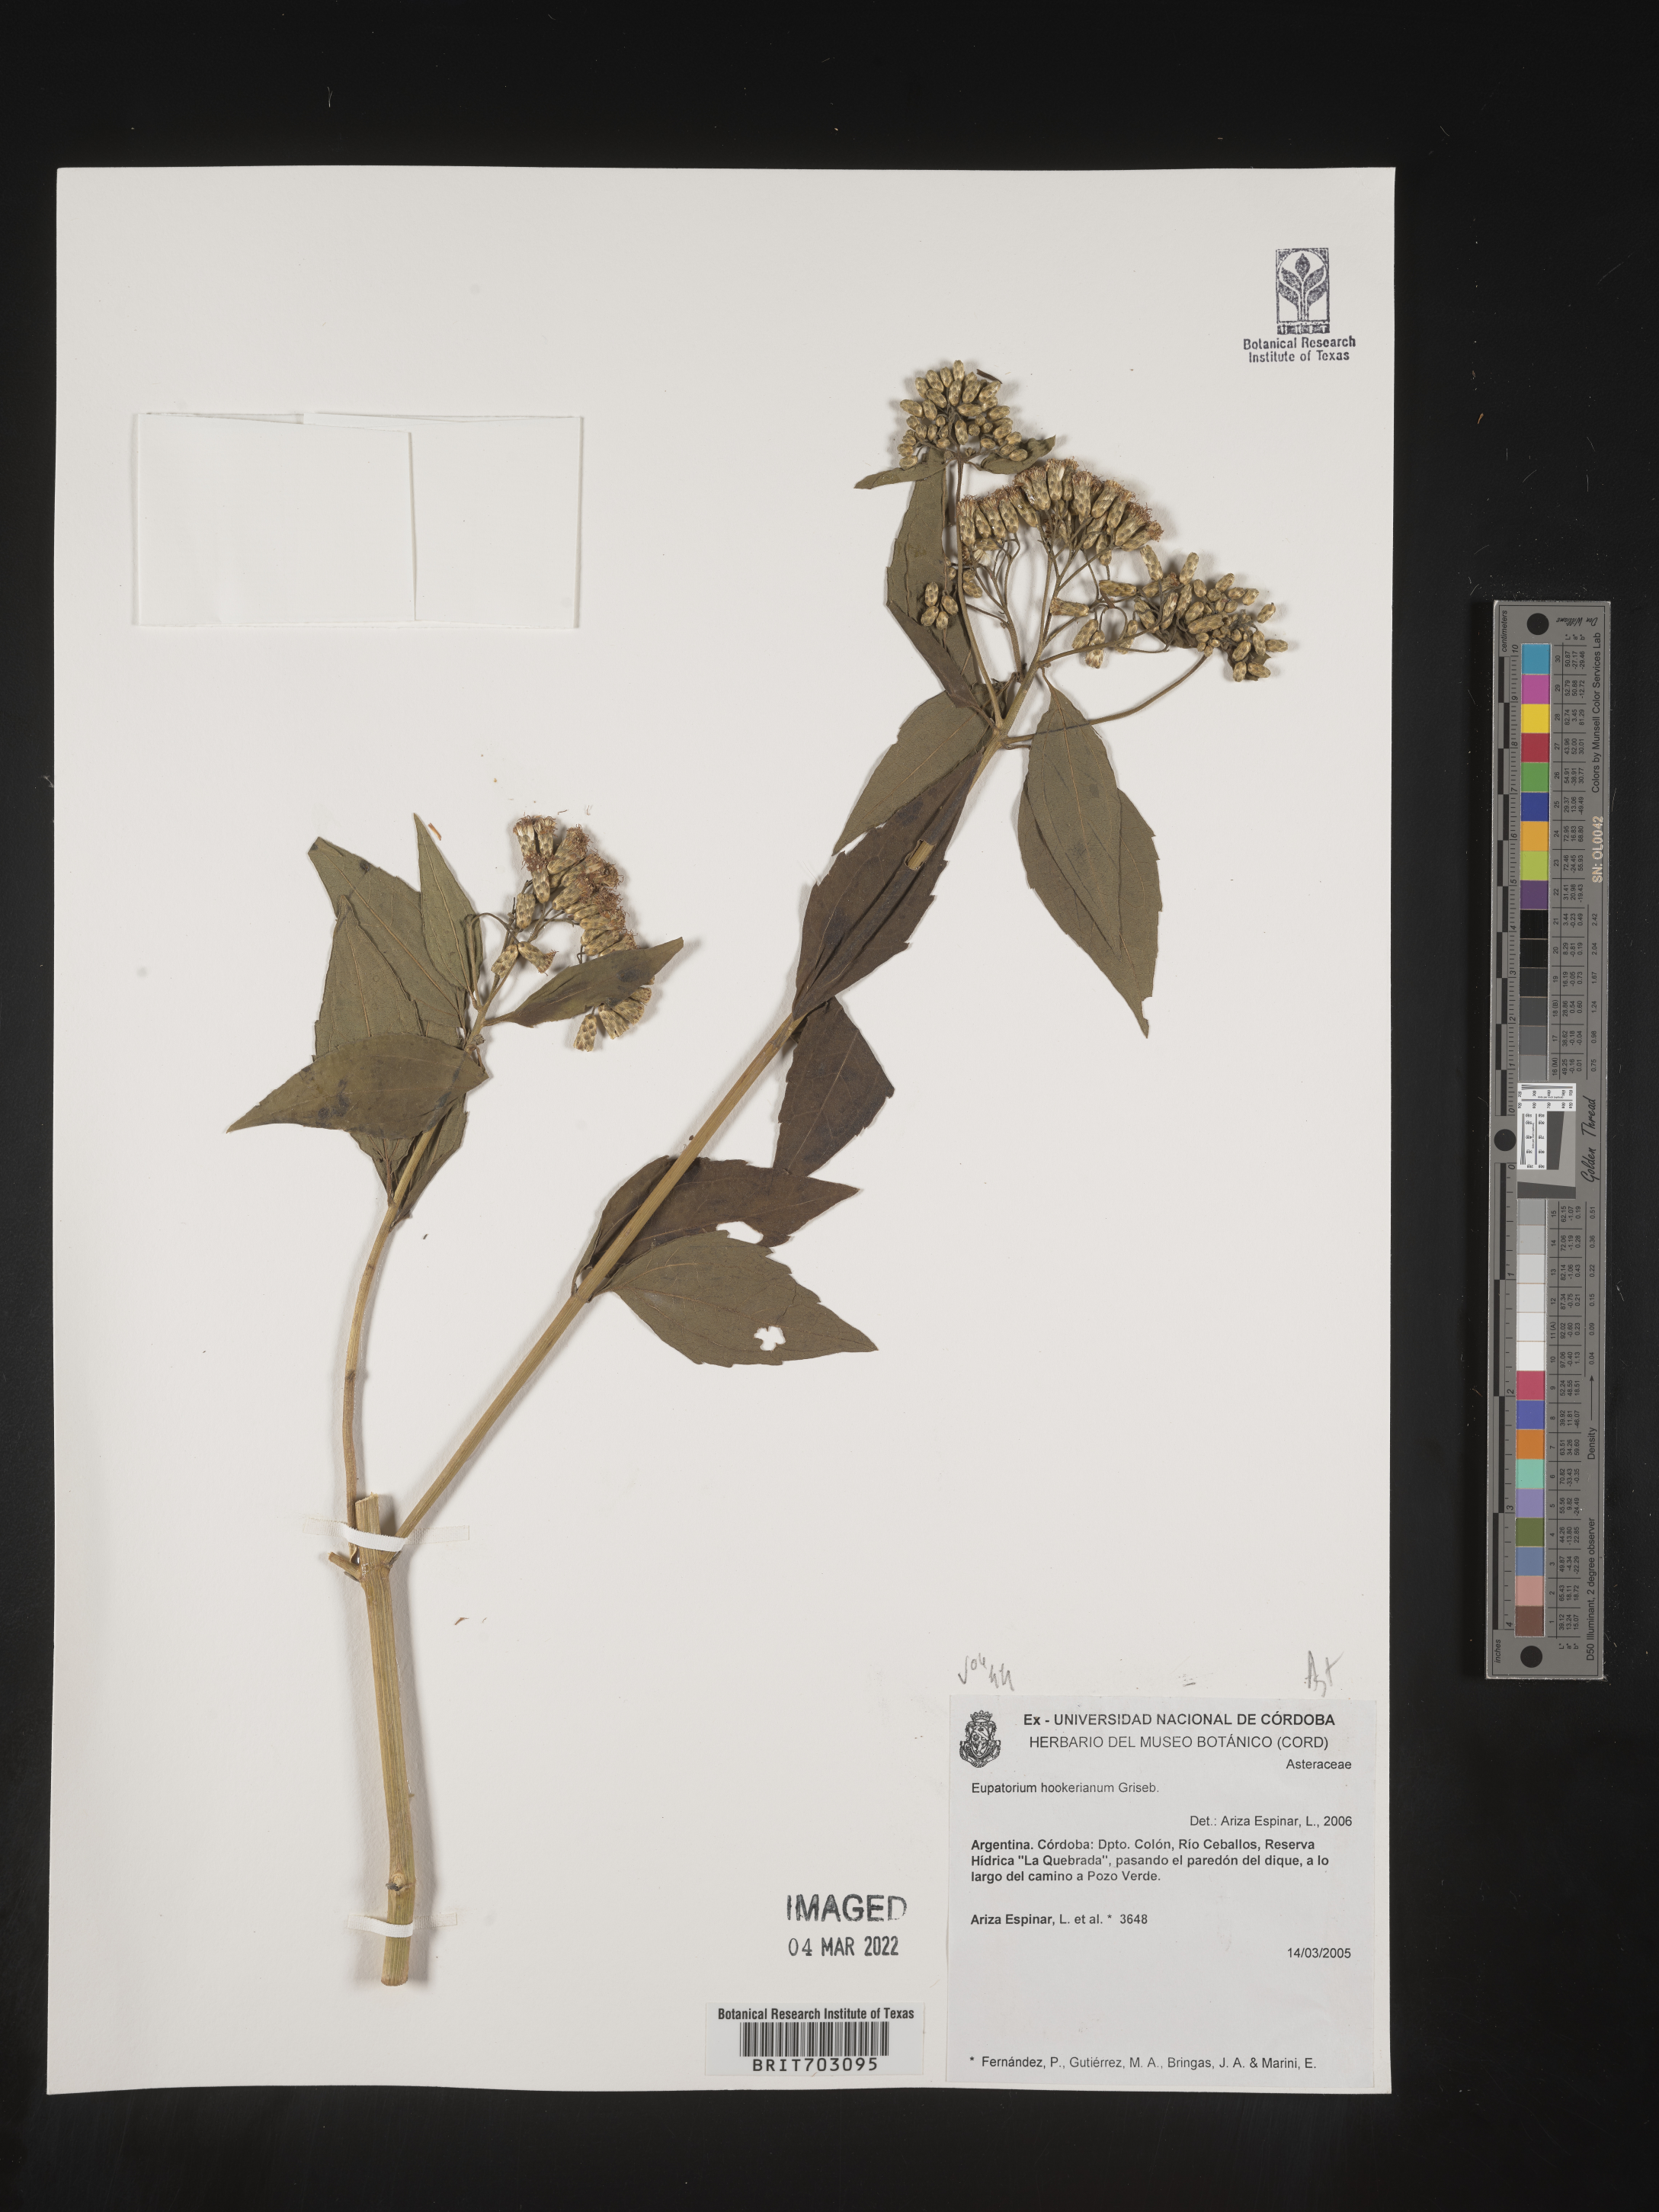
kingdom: Plantae
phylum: Tracheophyta
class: Magnoliopsida
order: Asterales
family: Asteraceae
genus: Eupatorium
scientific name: Eupatorium
